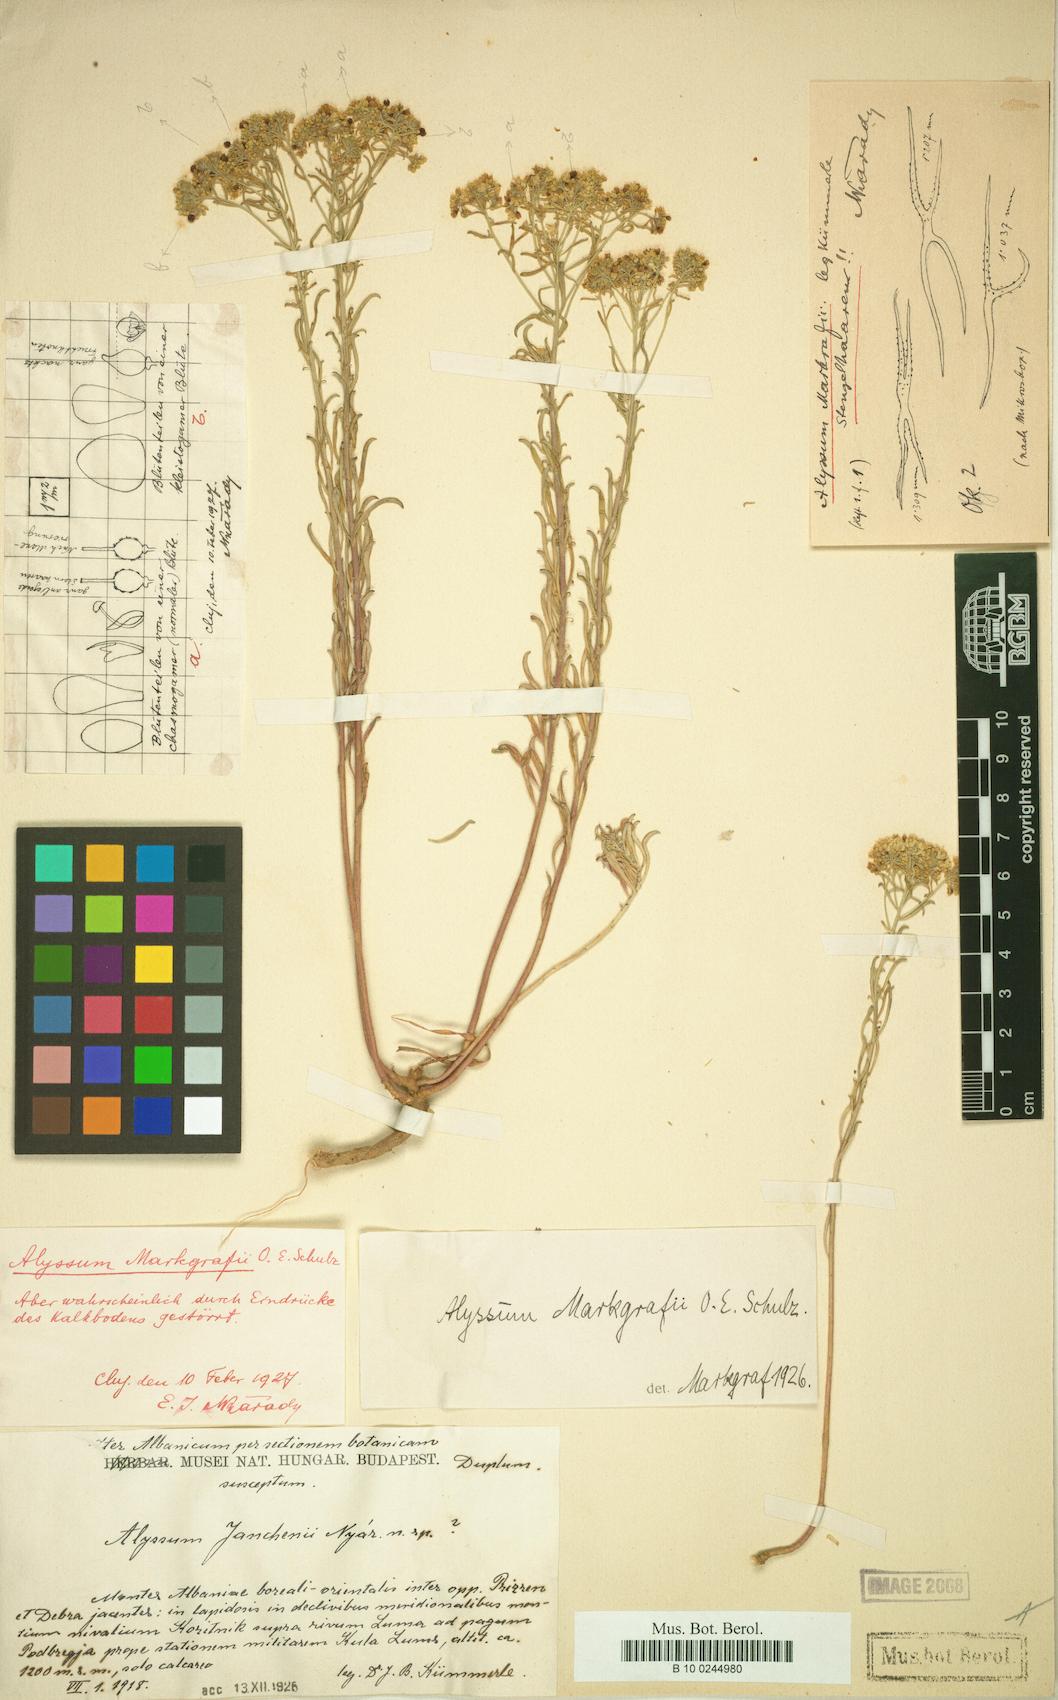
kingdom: Plantae
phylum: Tracheophyta
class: Magnoliopsida
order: Brassicales
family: Brassicaceae
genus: Odontarrhena
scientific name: Odontarrhena markgrafii
